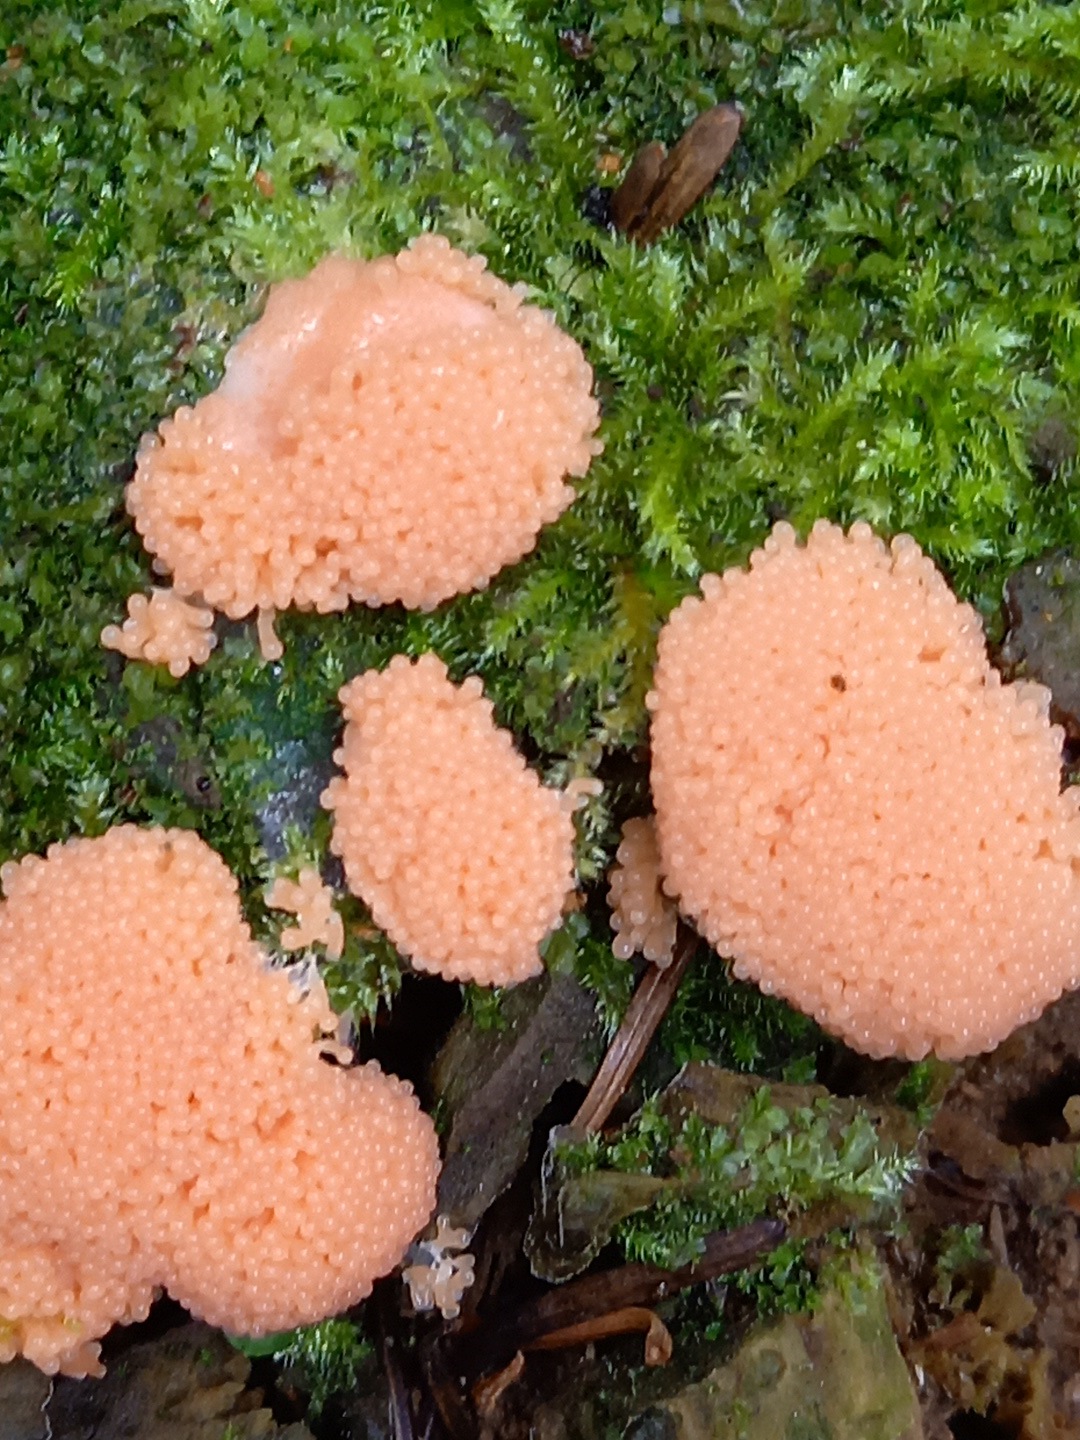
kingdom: Protozoa
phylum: Mycetozoa
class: Myxomycetes
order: Cribrariales
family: Tubiferaceae
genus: Tubifera
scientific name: Tubifera ferruginosa
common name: kanel-støvrør
